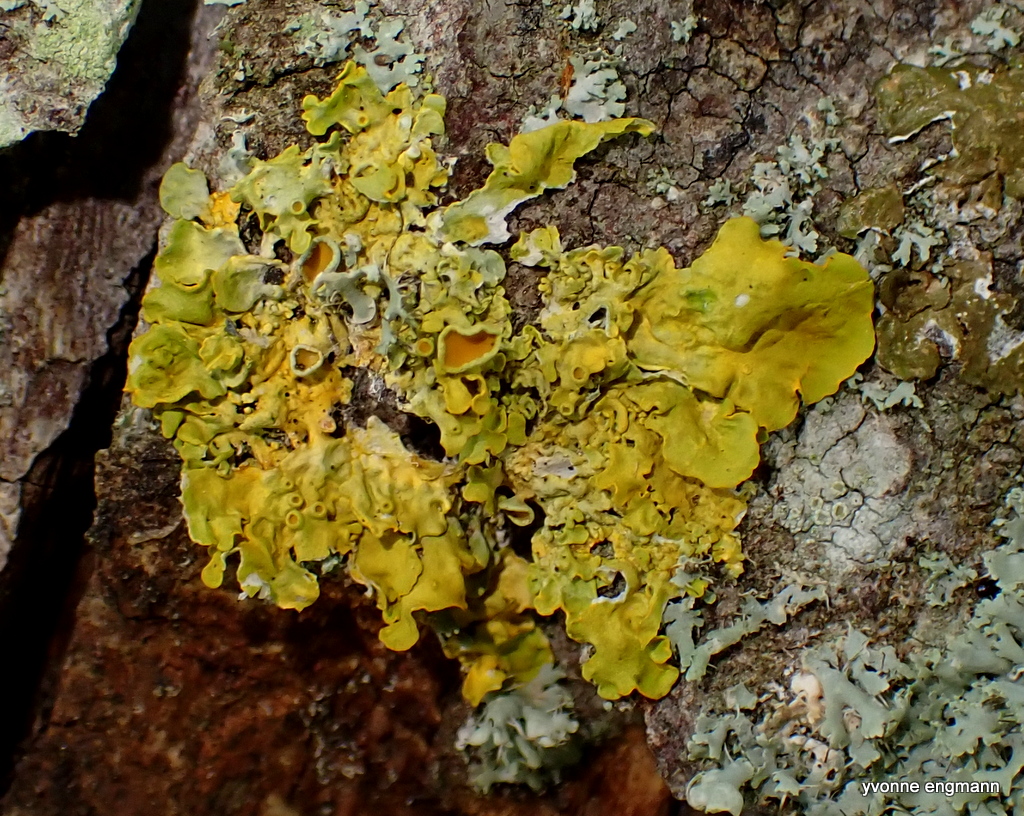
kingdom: Fungi
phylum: Ascomycota
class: Lecanoromycetes
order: Teloschistales
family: Teloschistaceae
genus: Xanthoria
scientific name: Xanthoria parietina
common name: almindelig væggelav
